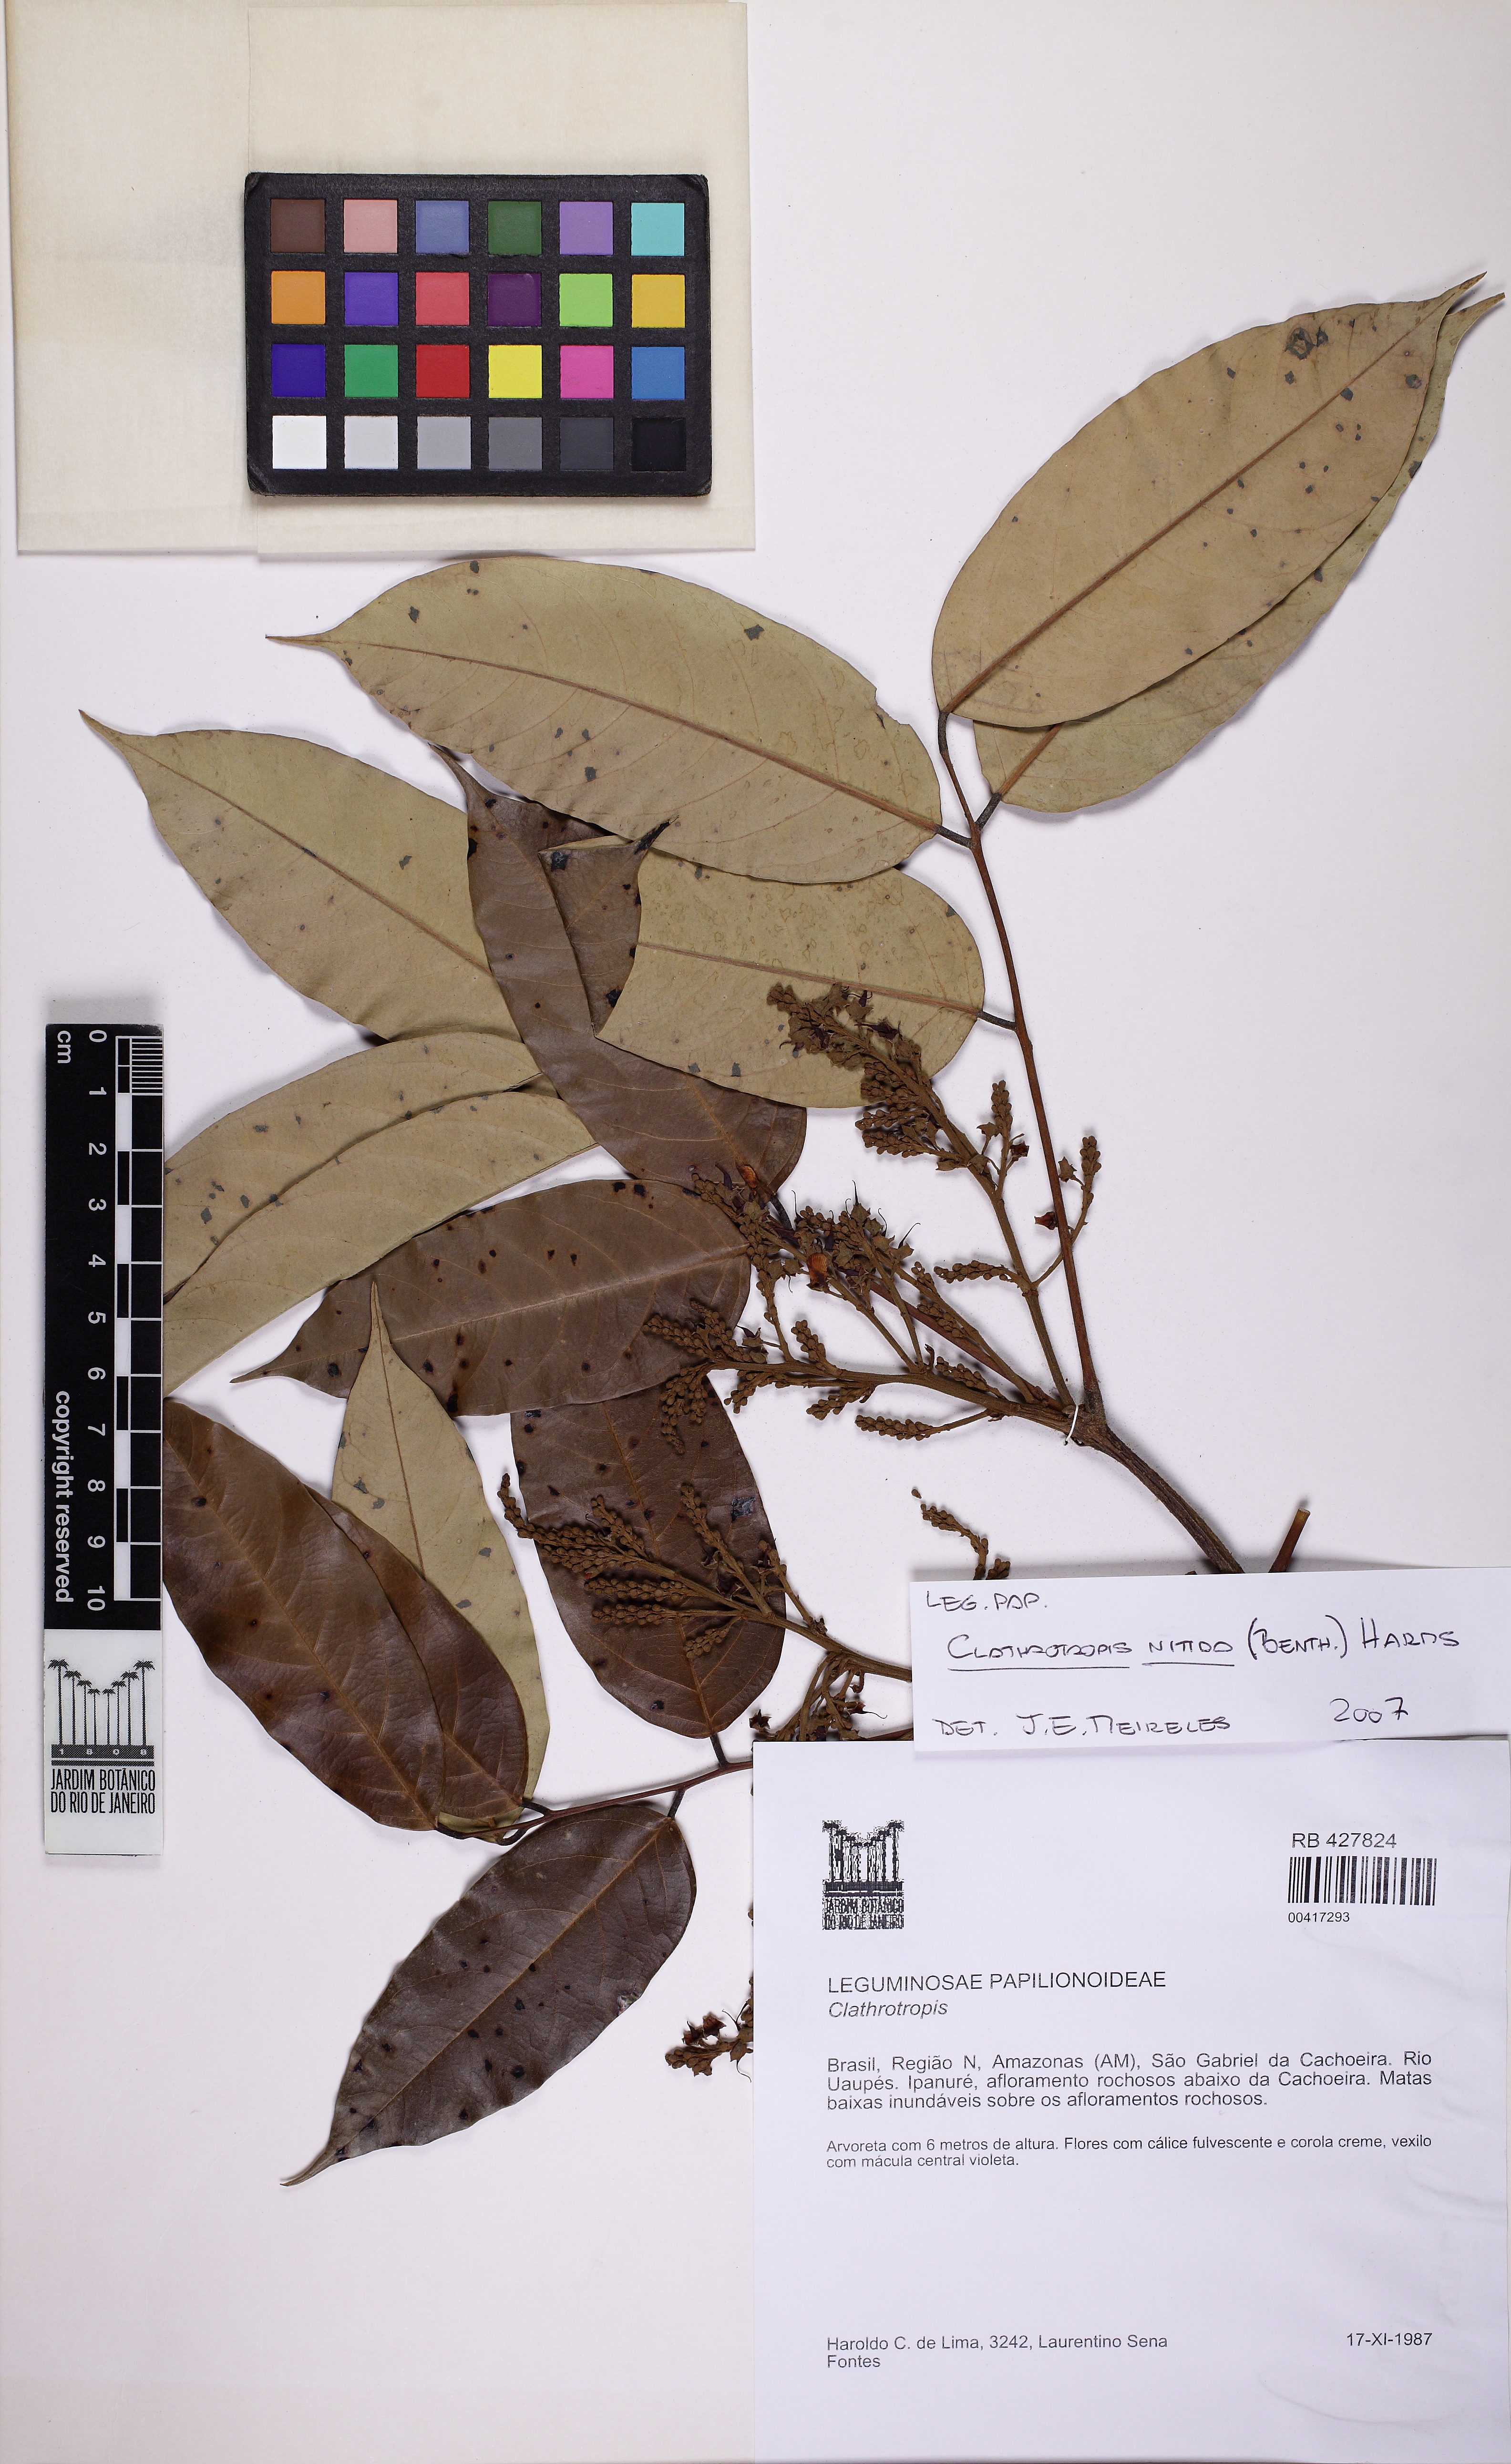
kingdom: Plantae
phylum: Tracheophyta
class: Magnoliopsida
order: Fabales
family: Fabaceae
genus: Clathrotropis
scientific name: Clathrotropis nitida
